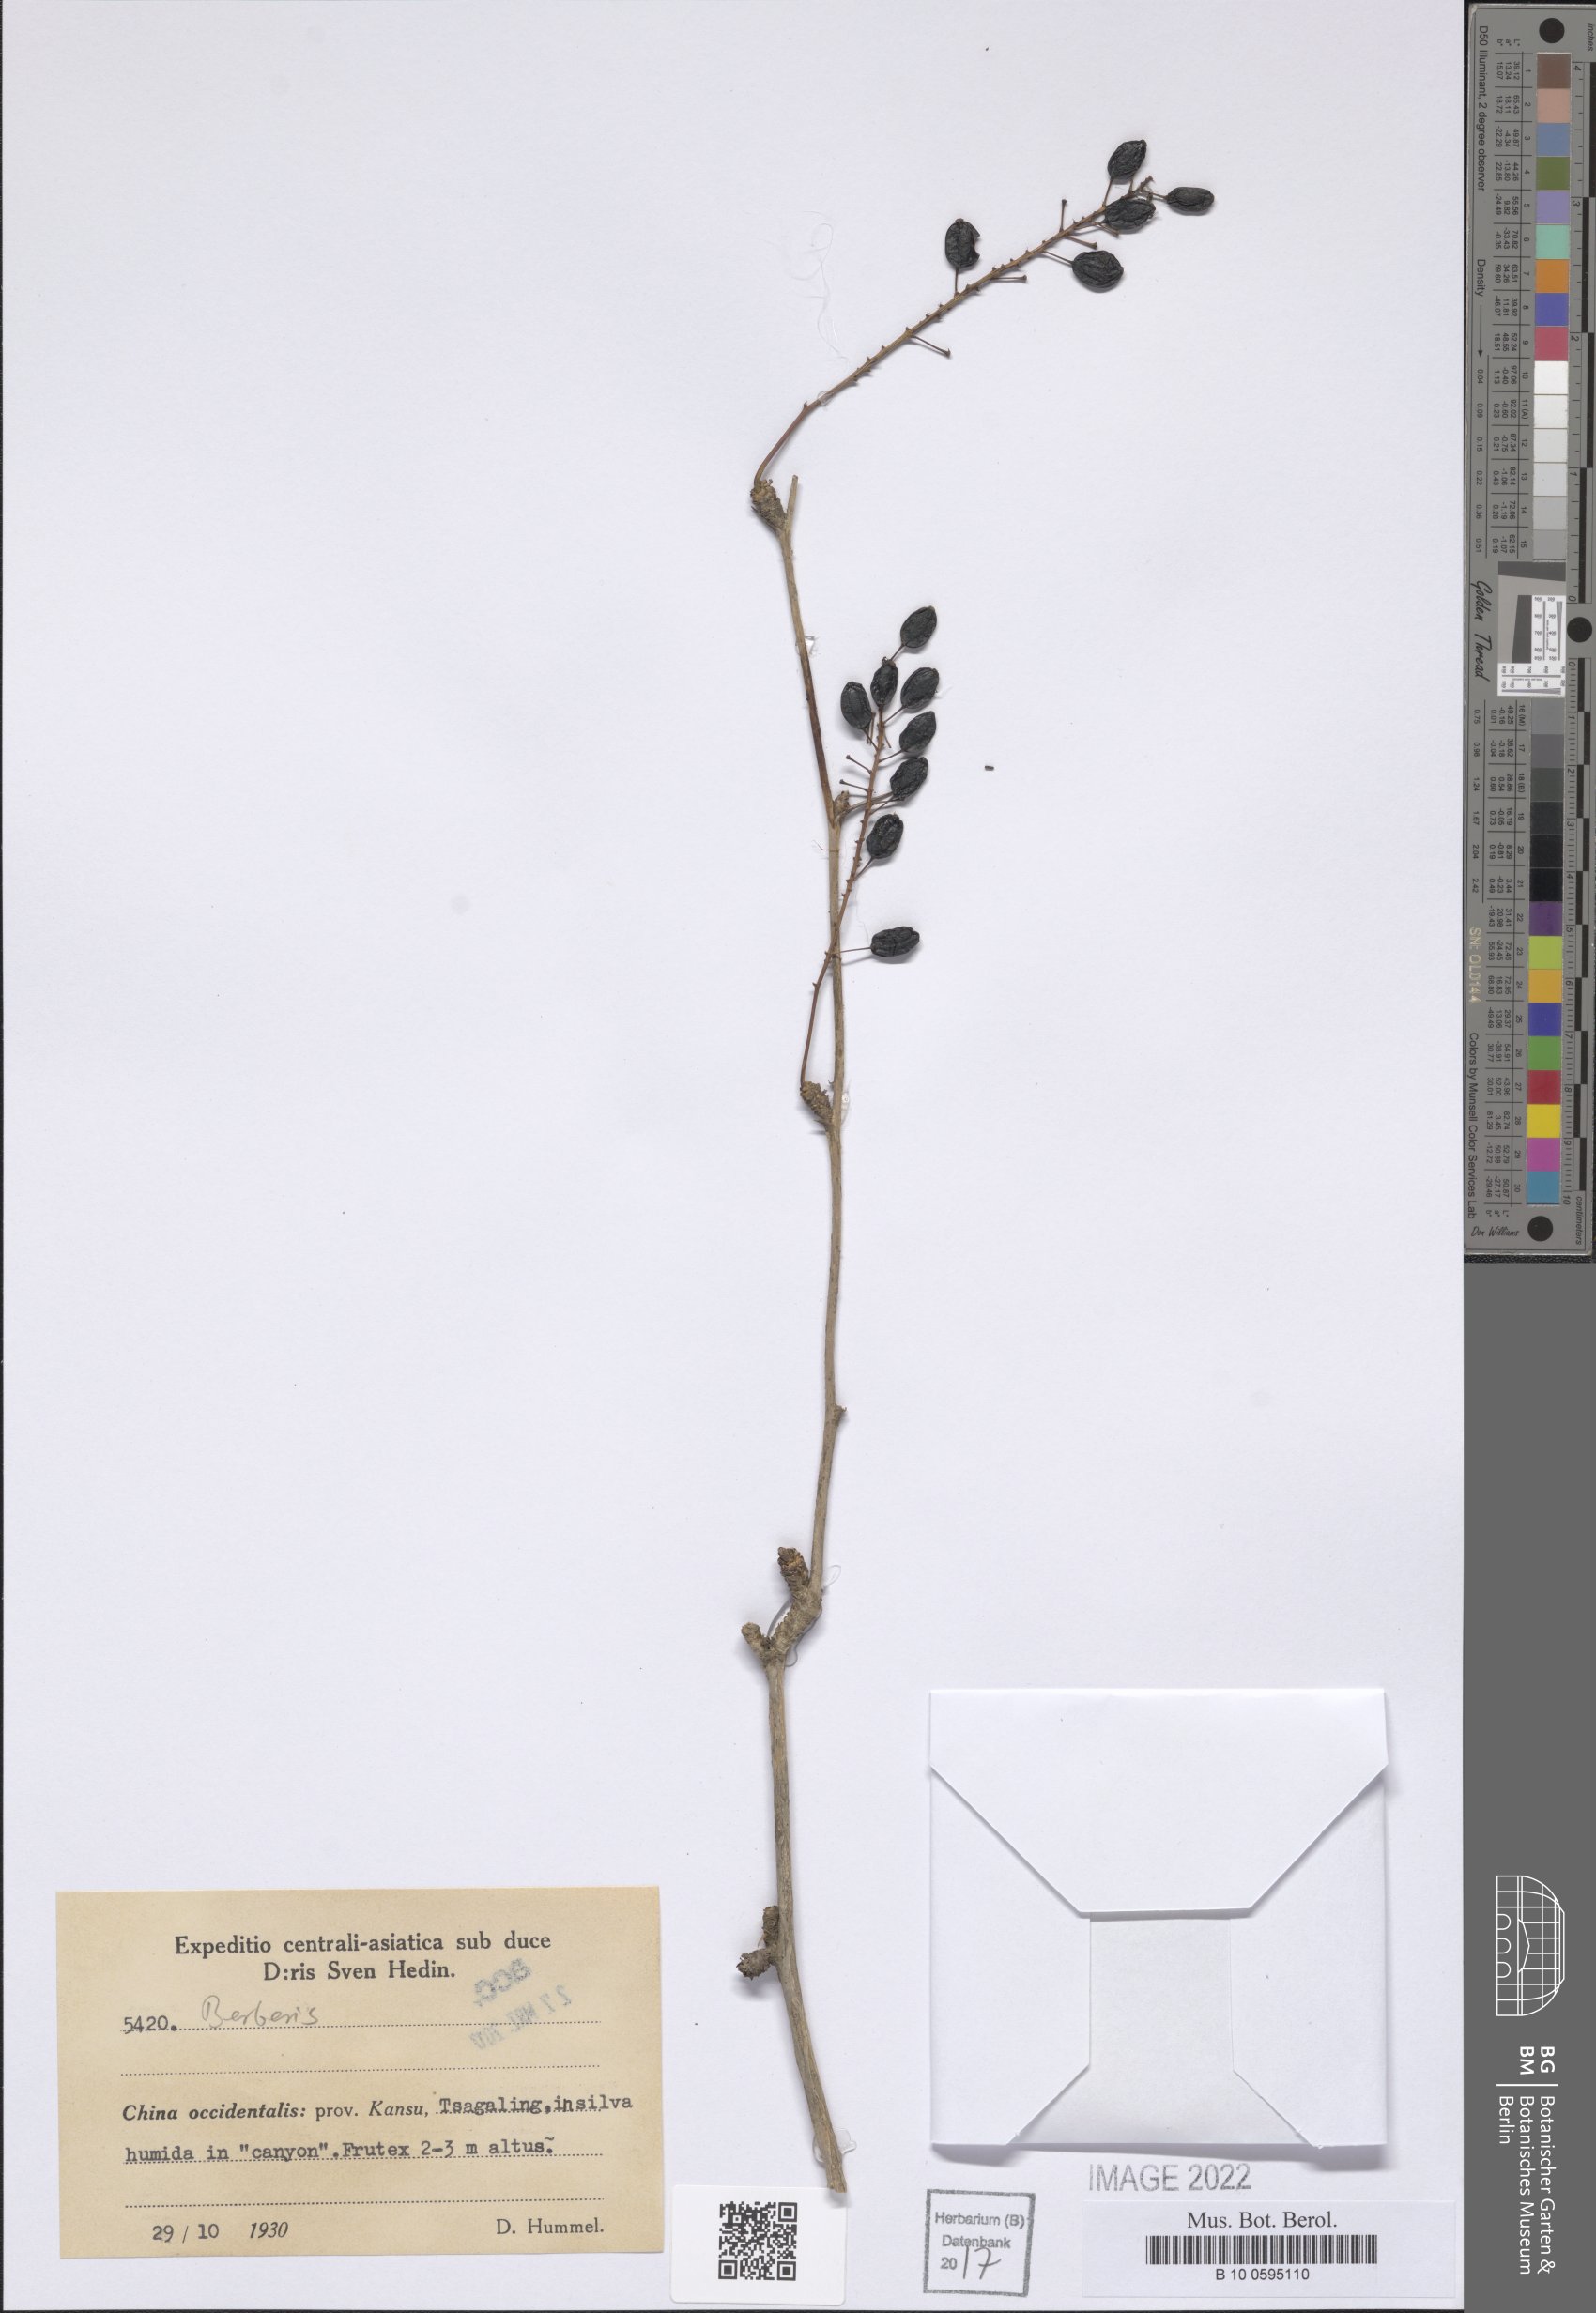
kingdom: Plantae
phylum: Tracheophyta
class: Magnoliopsida
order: Ranunculales
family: Berberidaceae
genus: Berberis
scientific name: Berberis
